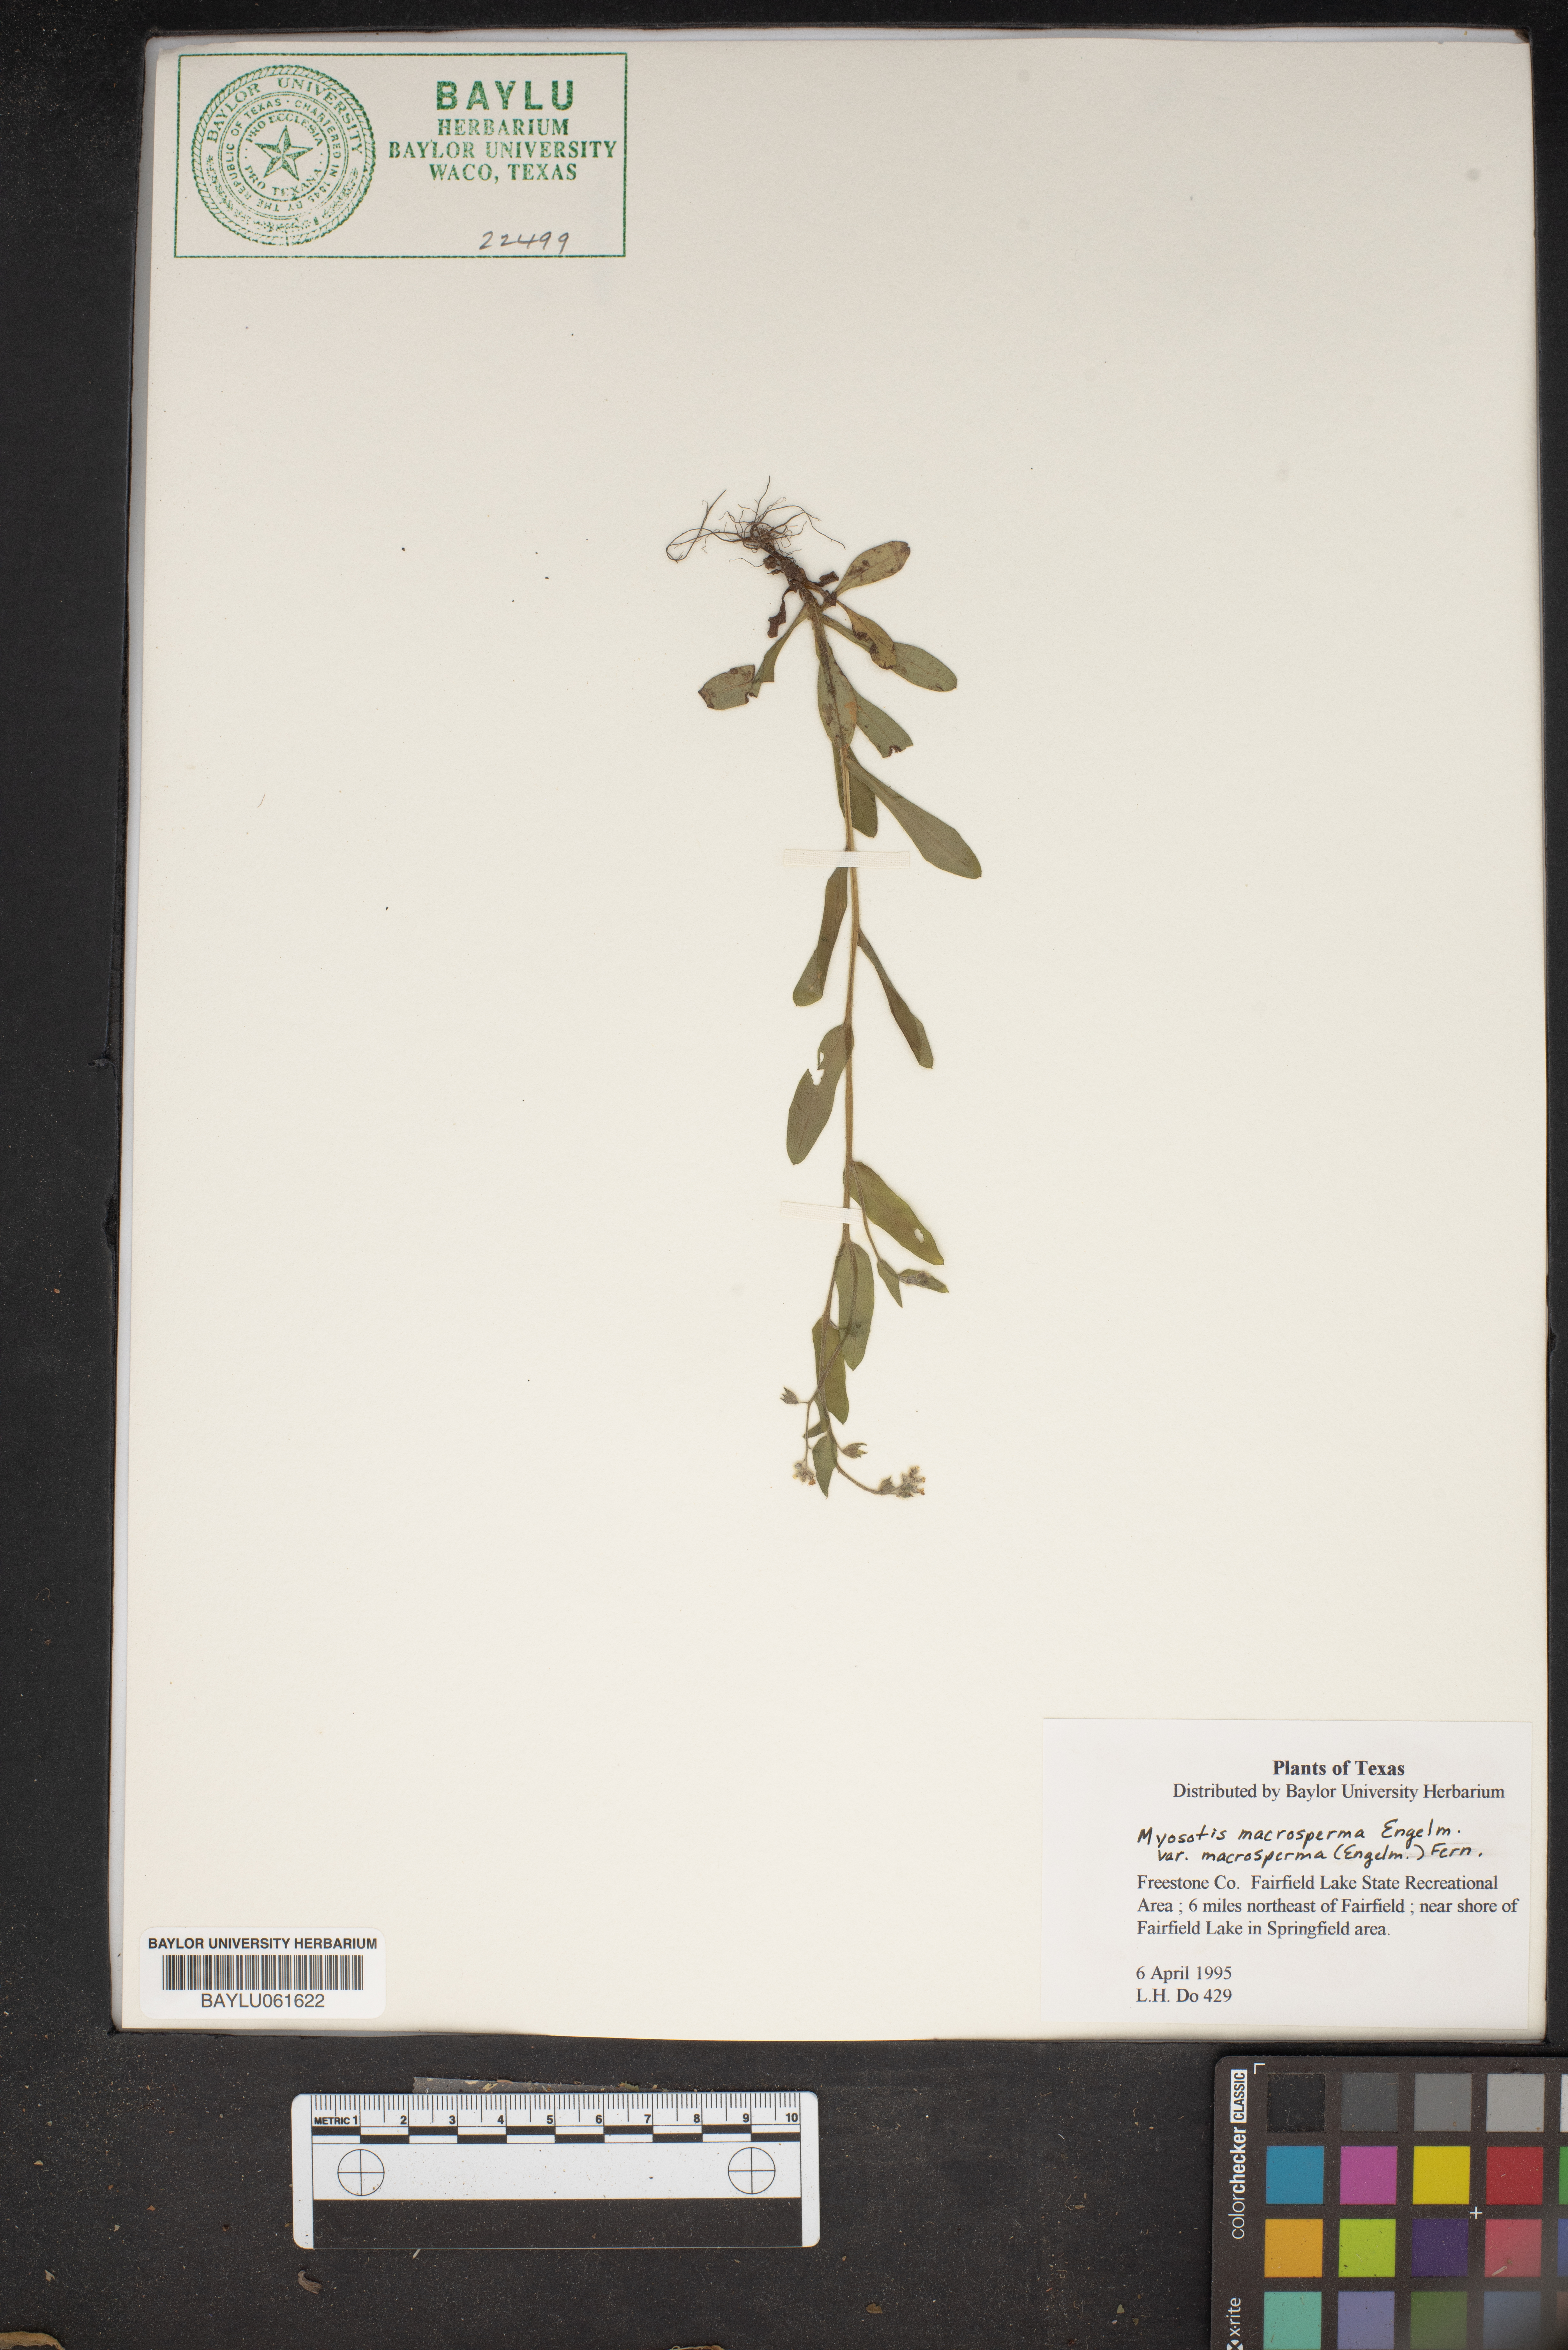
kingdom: Plantae
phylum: Tracheophyta
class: Magnoliopsida
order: Boraginales
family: Boraginaceae
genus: Myosotis
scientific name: Myosotis macrosperma
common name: Large-seed forget-me-not
